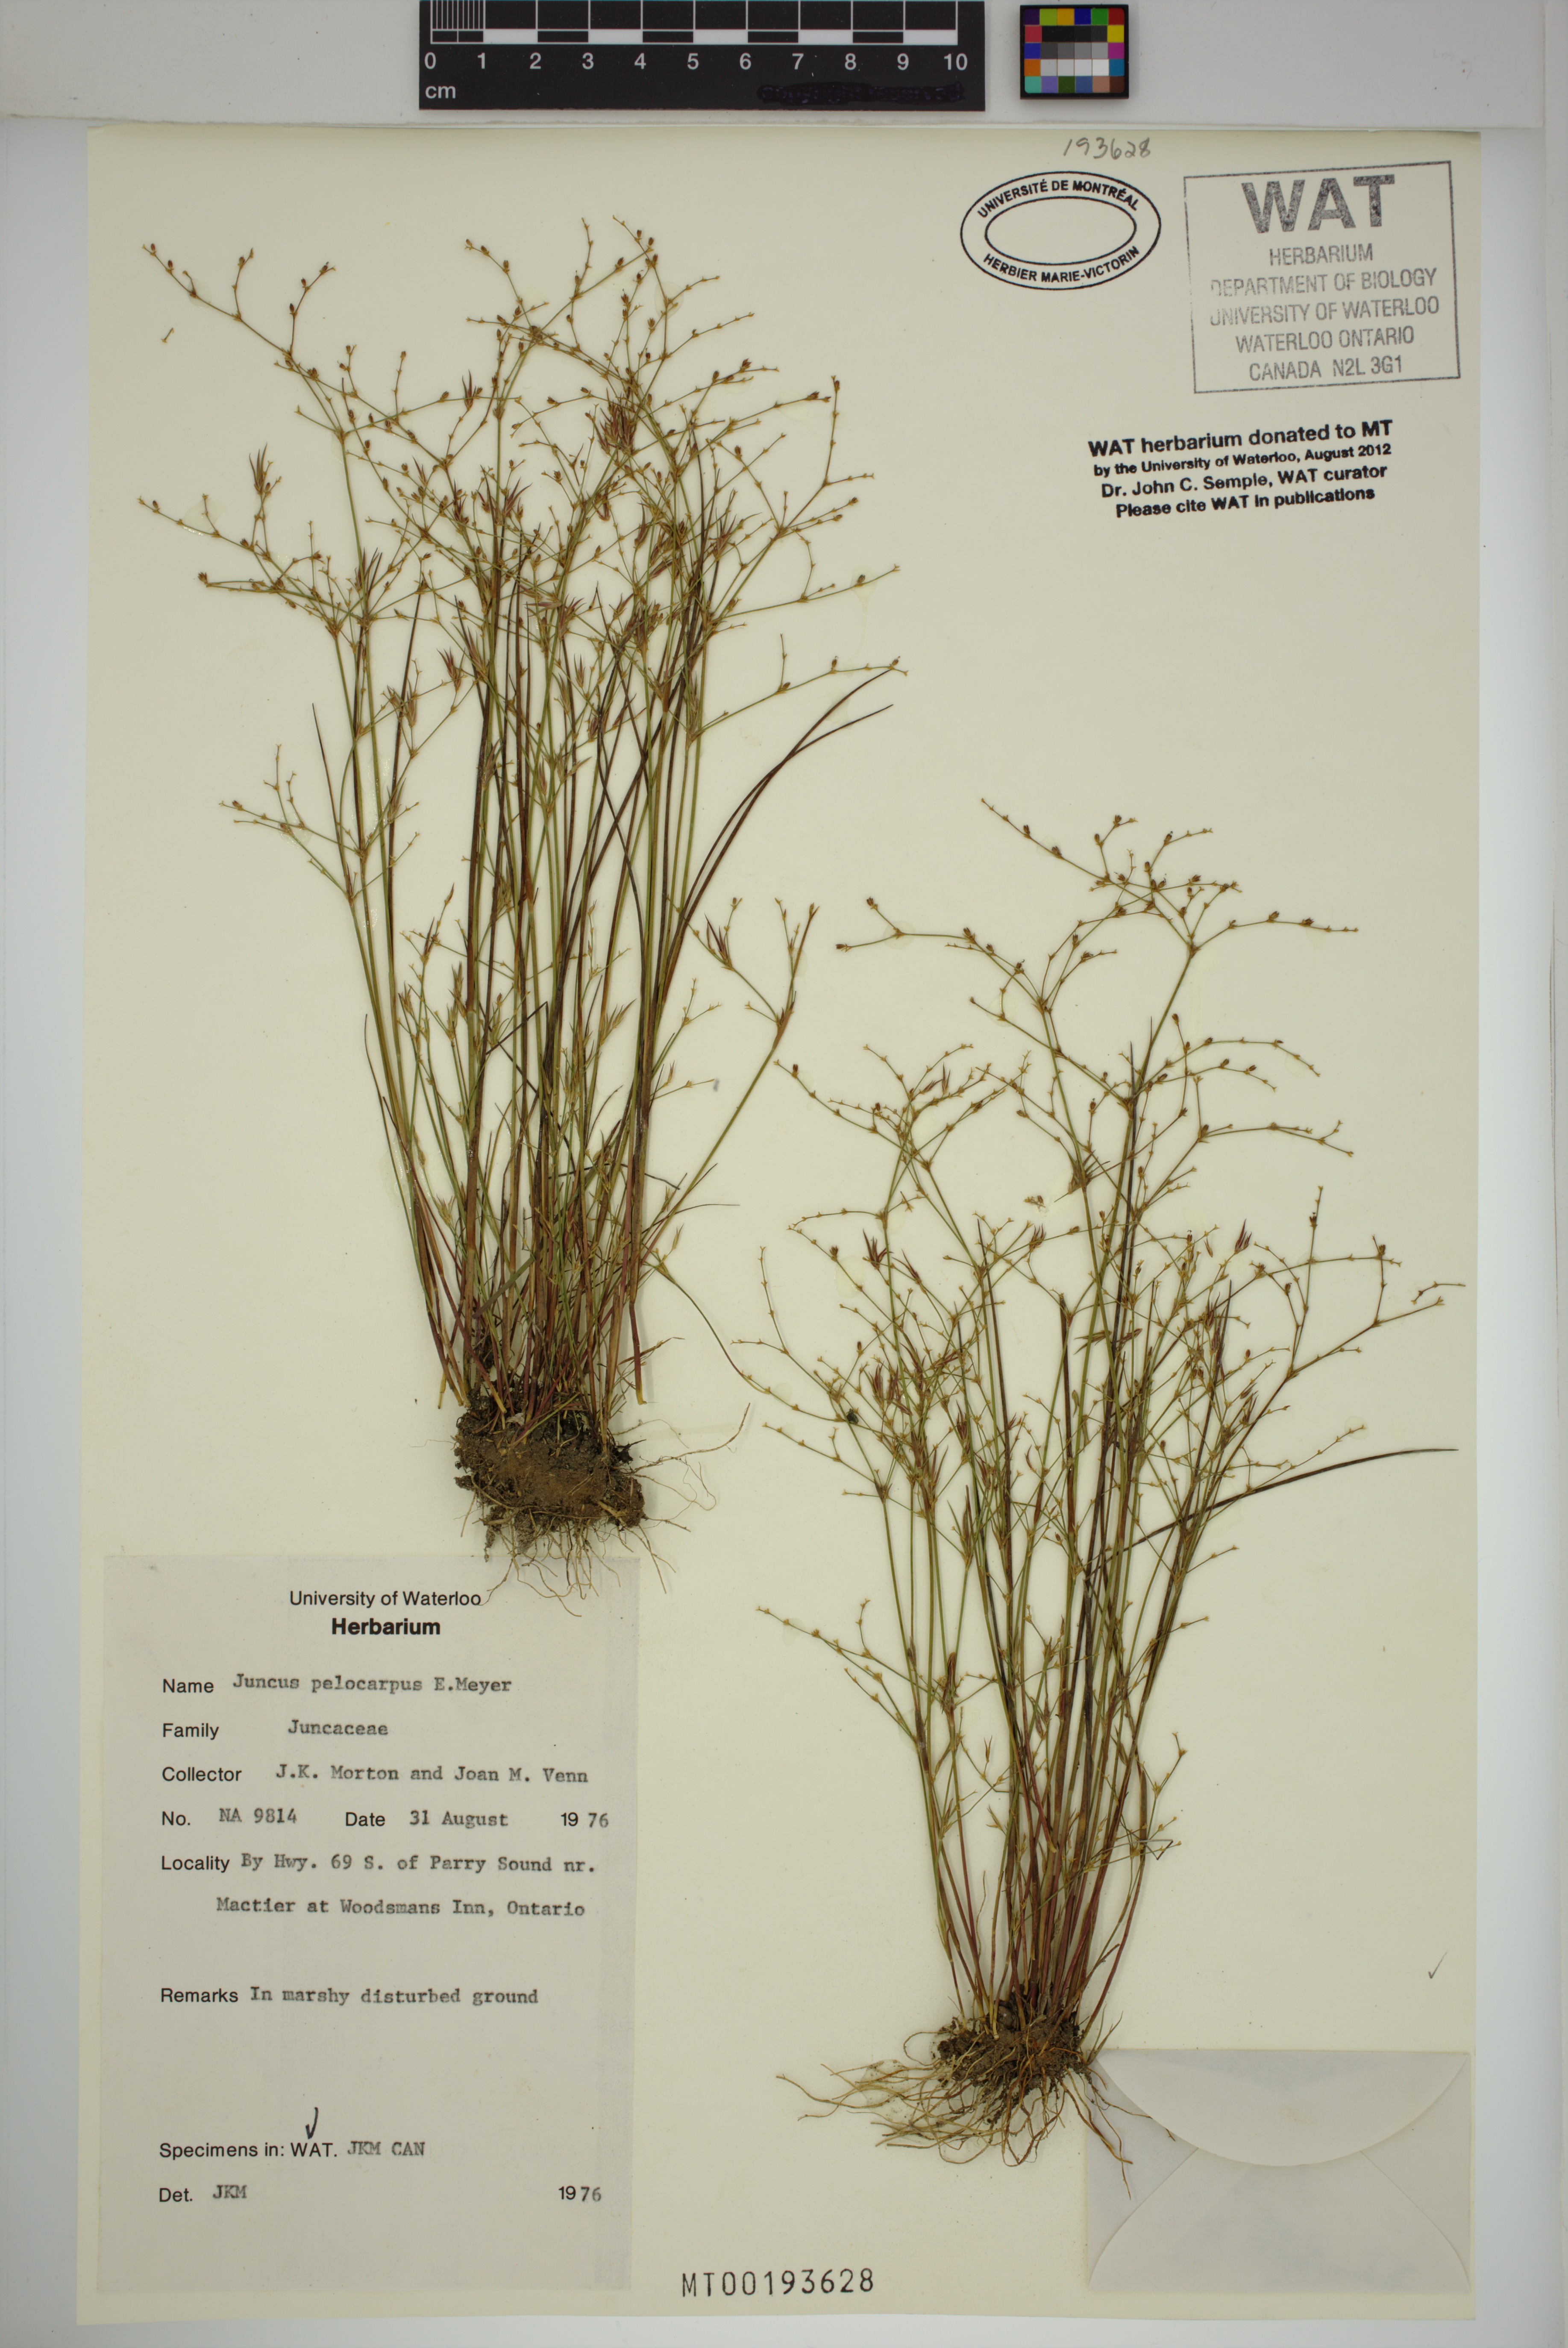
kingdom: Plantae
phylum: Tracheophyta
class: Liliopsida
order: Poales
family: Juncaceae
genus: Juncus
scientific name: Juncus pelocarpus
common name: Brown-fruited rush
